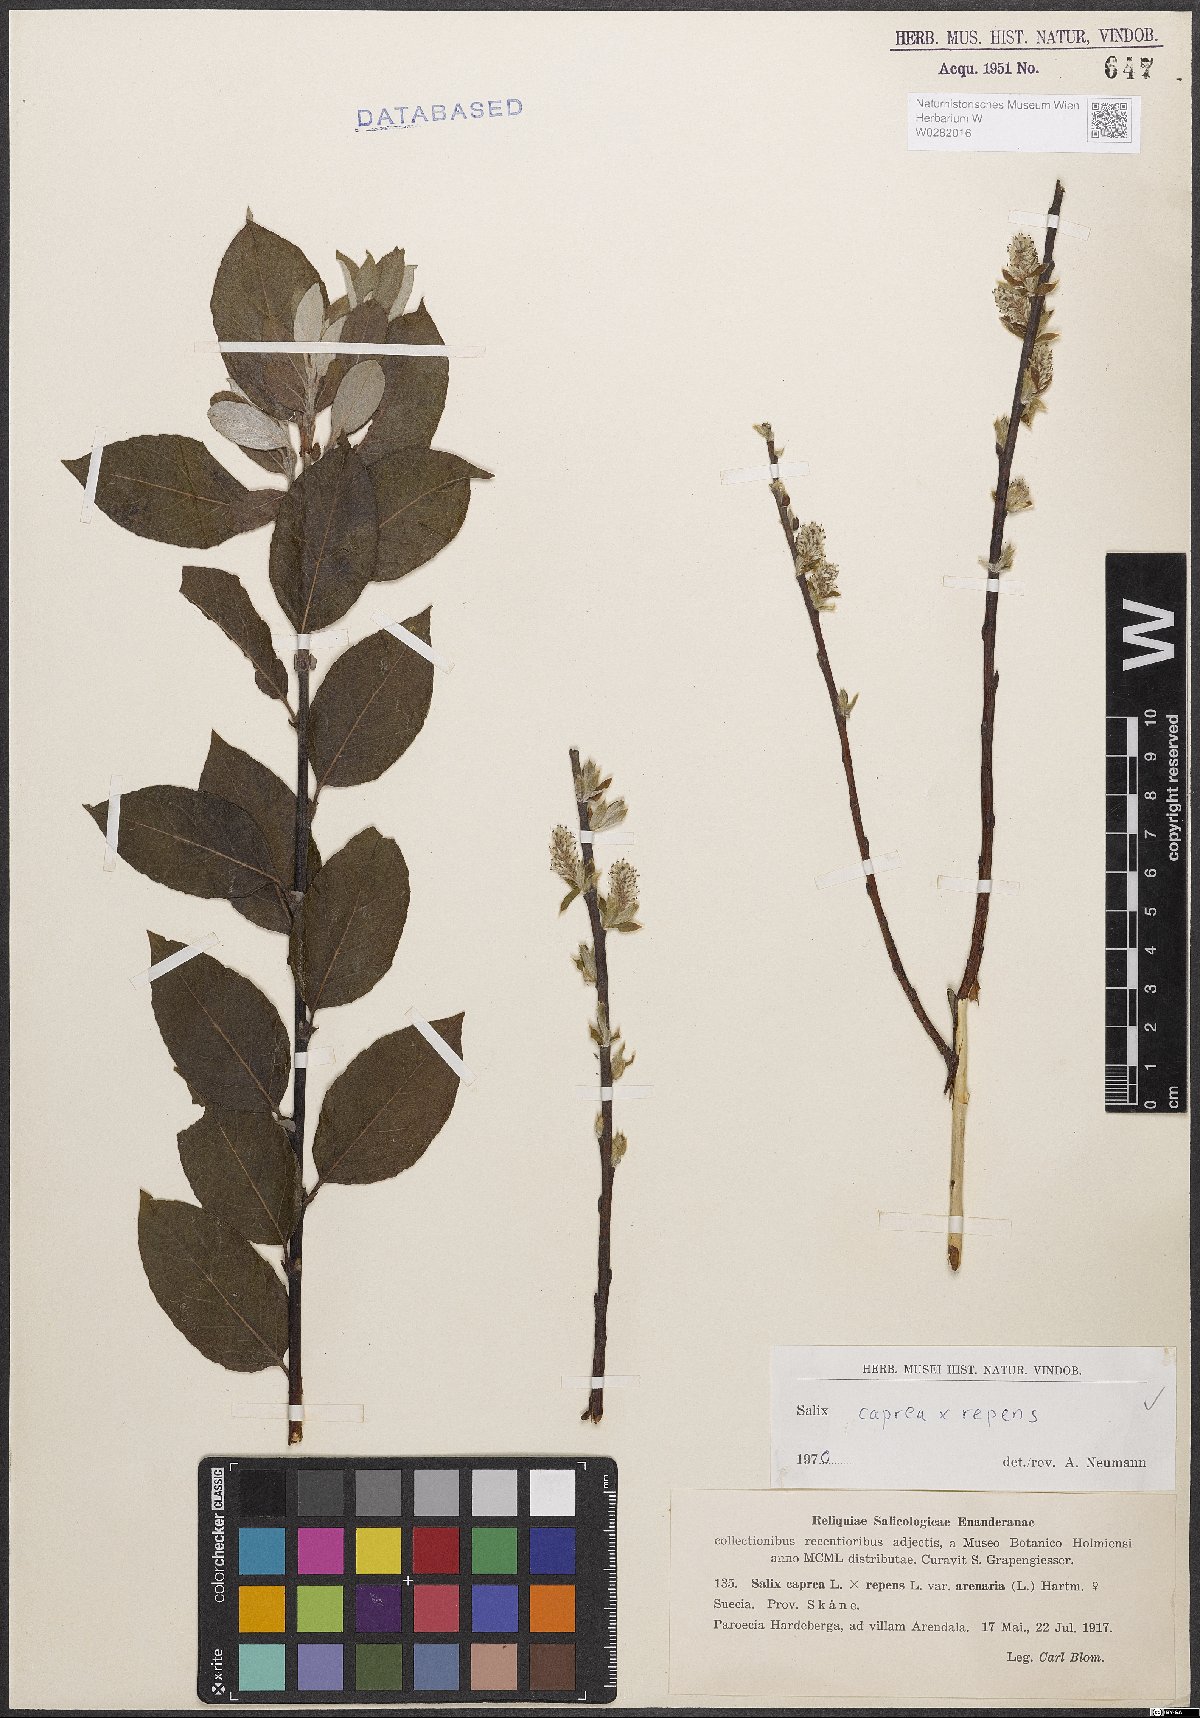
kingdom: Plantae
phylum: Tracheophyta
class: Magnoliopsida
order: Malpighiales
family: Salicaceae
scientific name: Salicaceae
